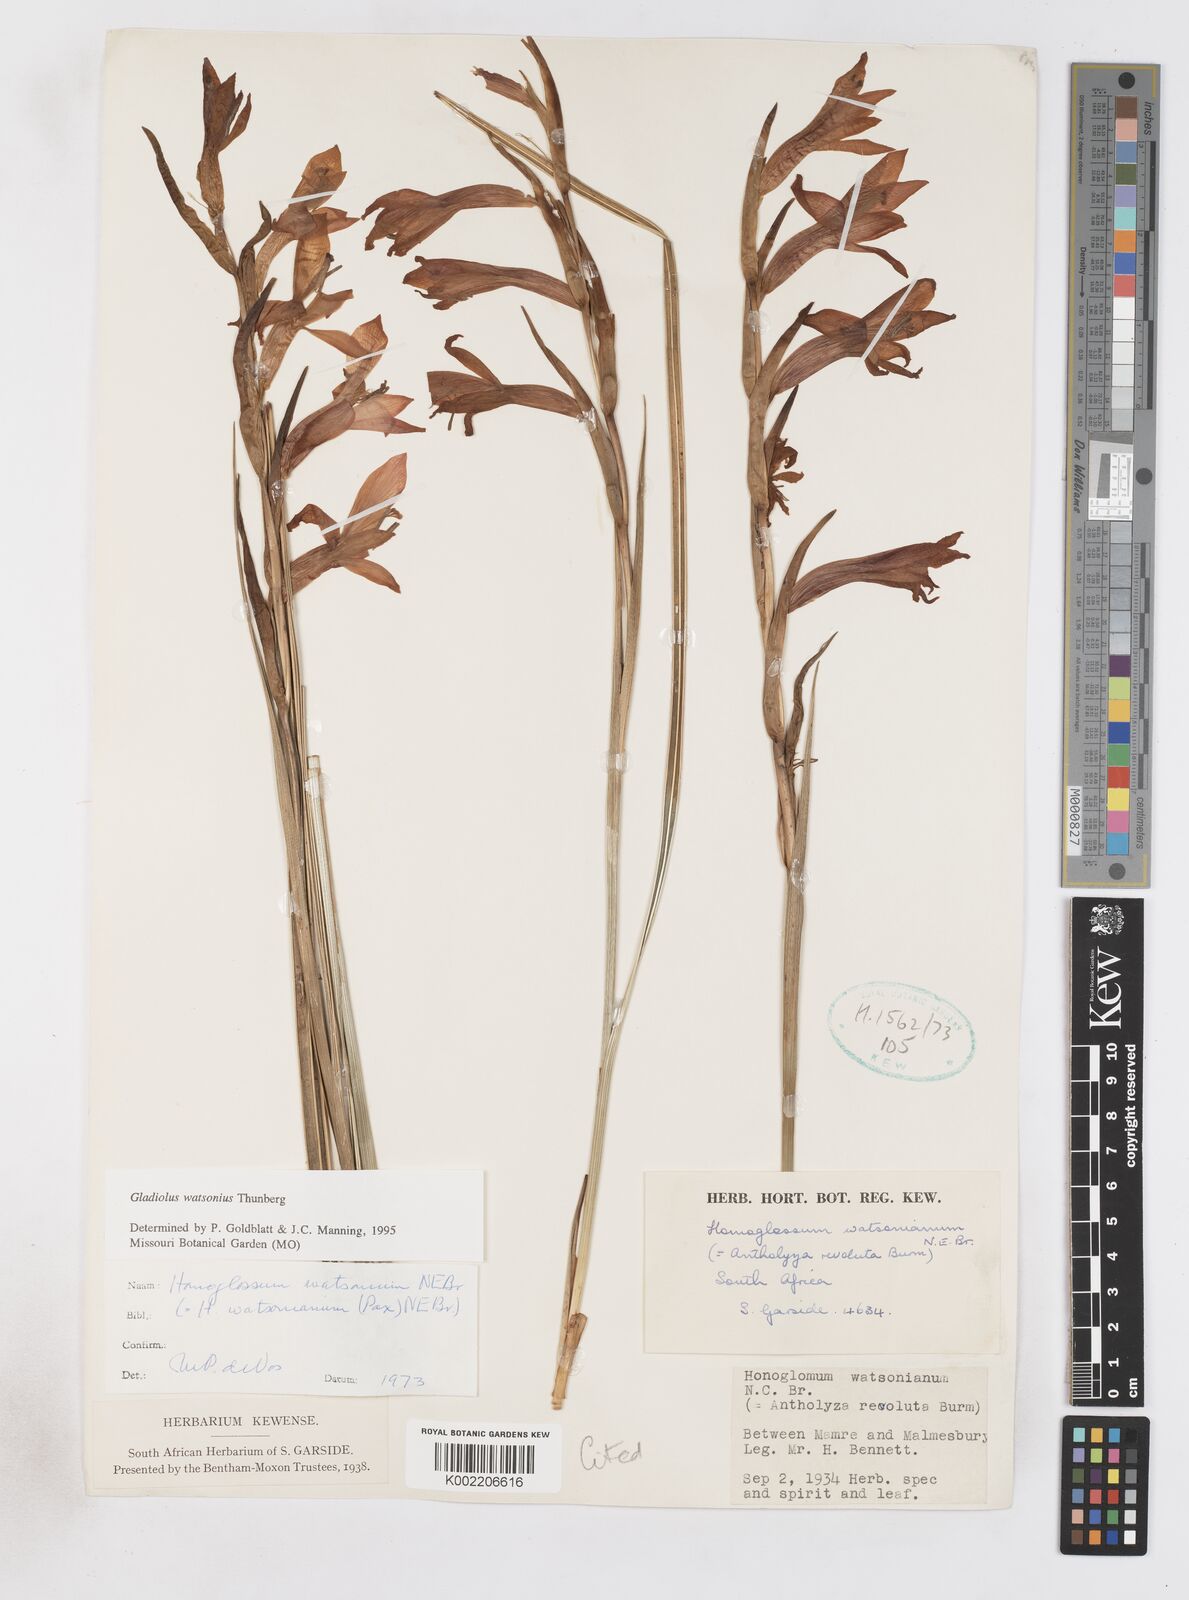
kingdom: Plantae
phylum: Tracheophyta
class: Liliopsida
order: Asparagales
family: Iridaceae
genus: Gladiolus
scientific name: Gladiolus watsonius
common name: Red afrikaner
